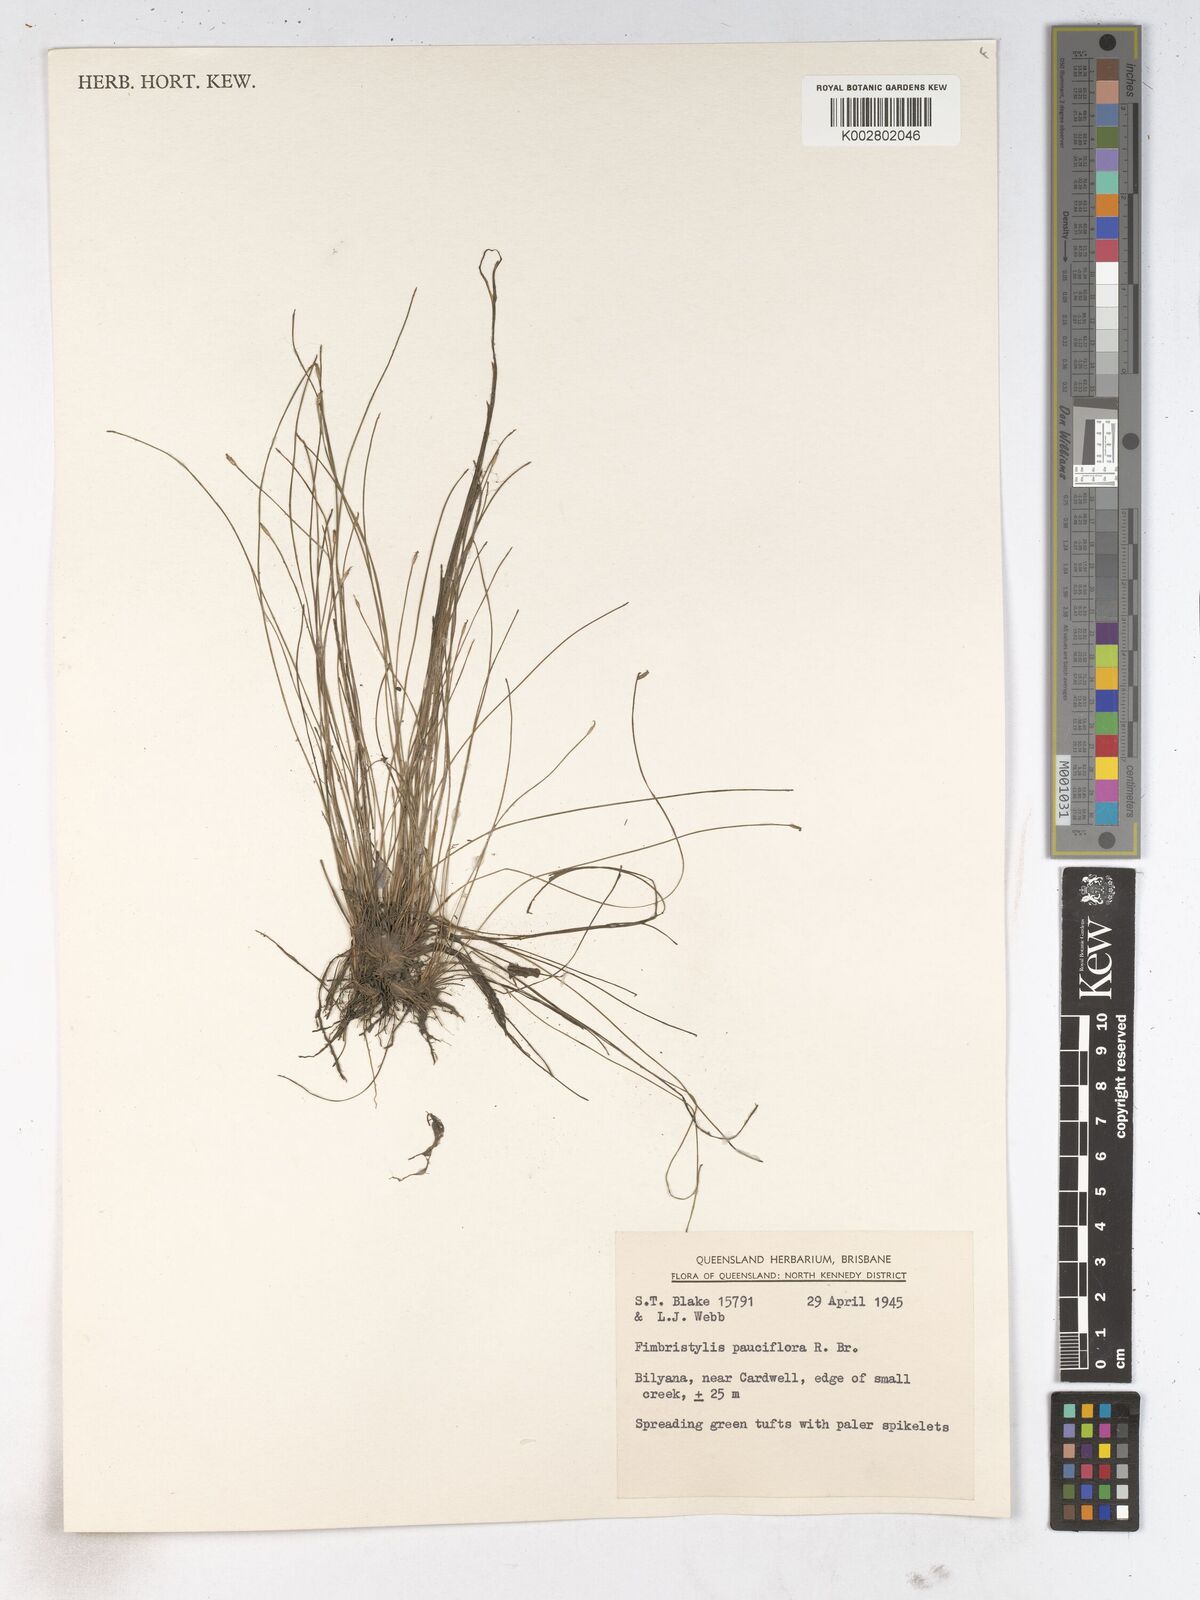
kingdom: Plantae
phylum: Tracheophyta
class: Liliopsida
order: Poales
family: Cyperaceae
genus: Fimbristylis
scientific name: Fimbristylis pauciflora
